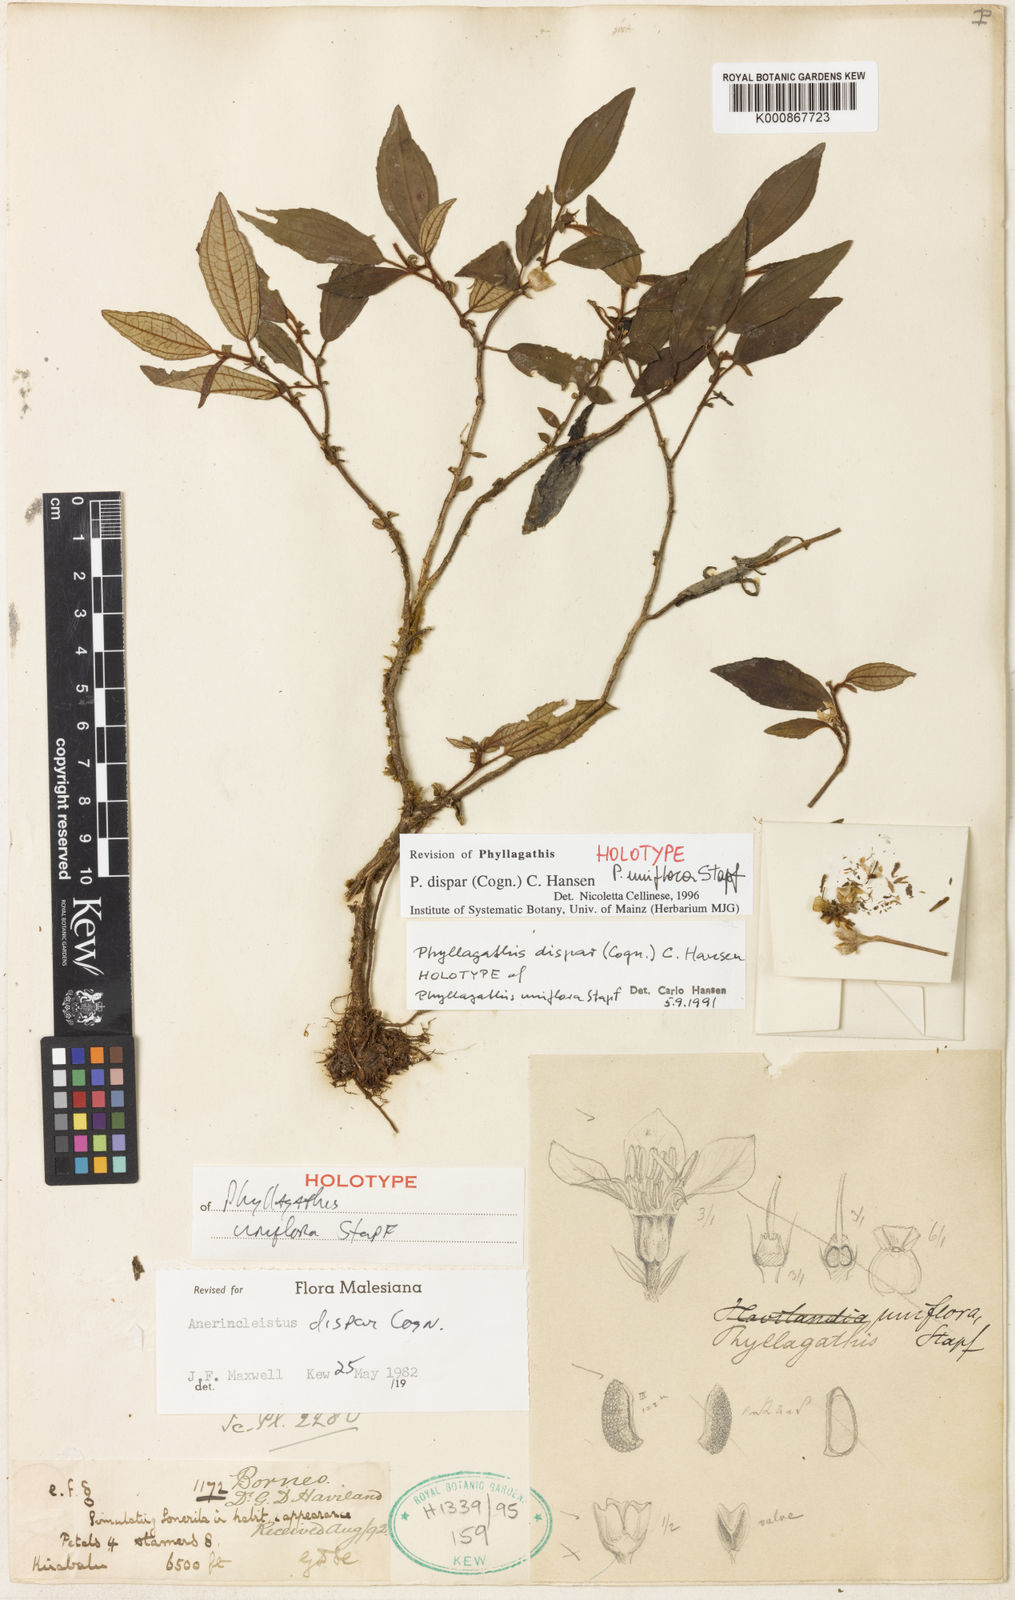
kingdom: Plantae
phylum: Tracheophyta
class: Magnoliopsida
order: Myrtales
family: Melastomataceae
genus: Anerincleistus
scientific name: Anerincleistus dispar
